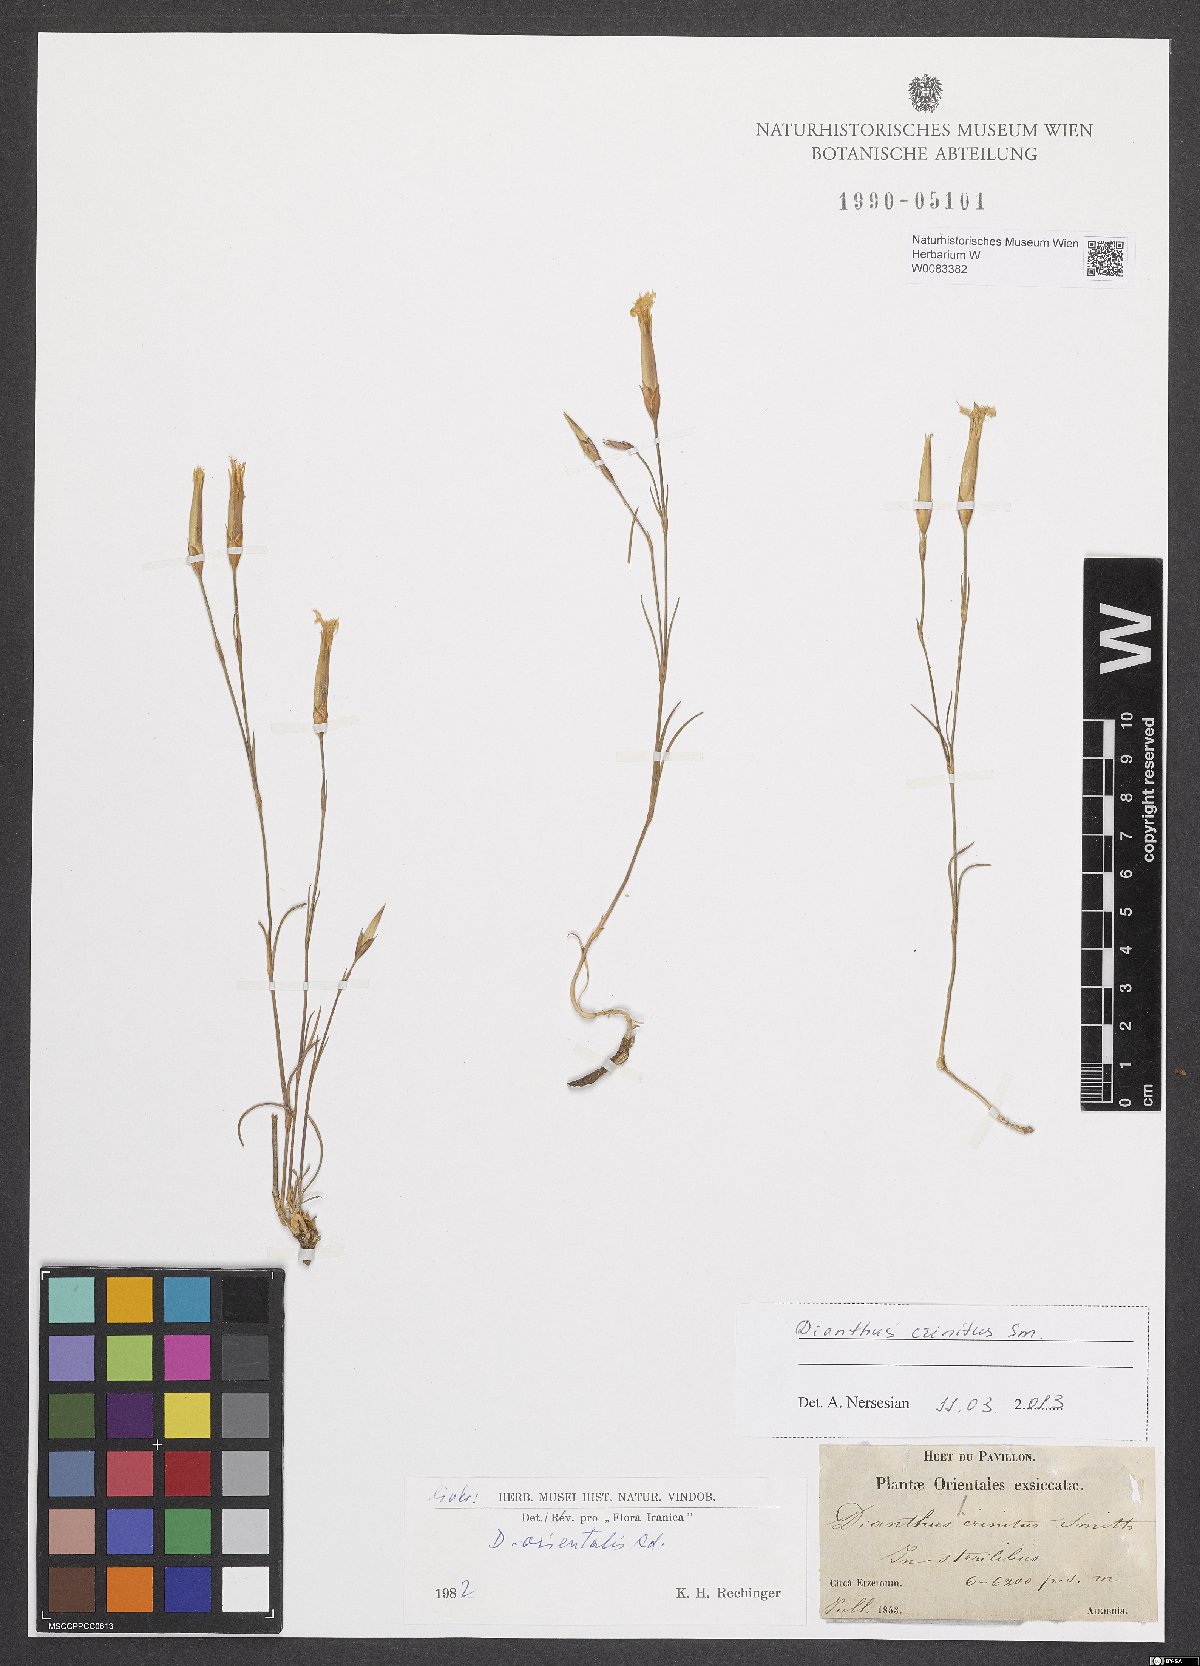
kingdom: Plantae
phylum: Tracheophyta
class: Magnoliopsida
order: Caryophyllales
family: Caryophyllaceae
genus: Dianthus
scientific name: Dianthus crinitus
